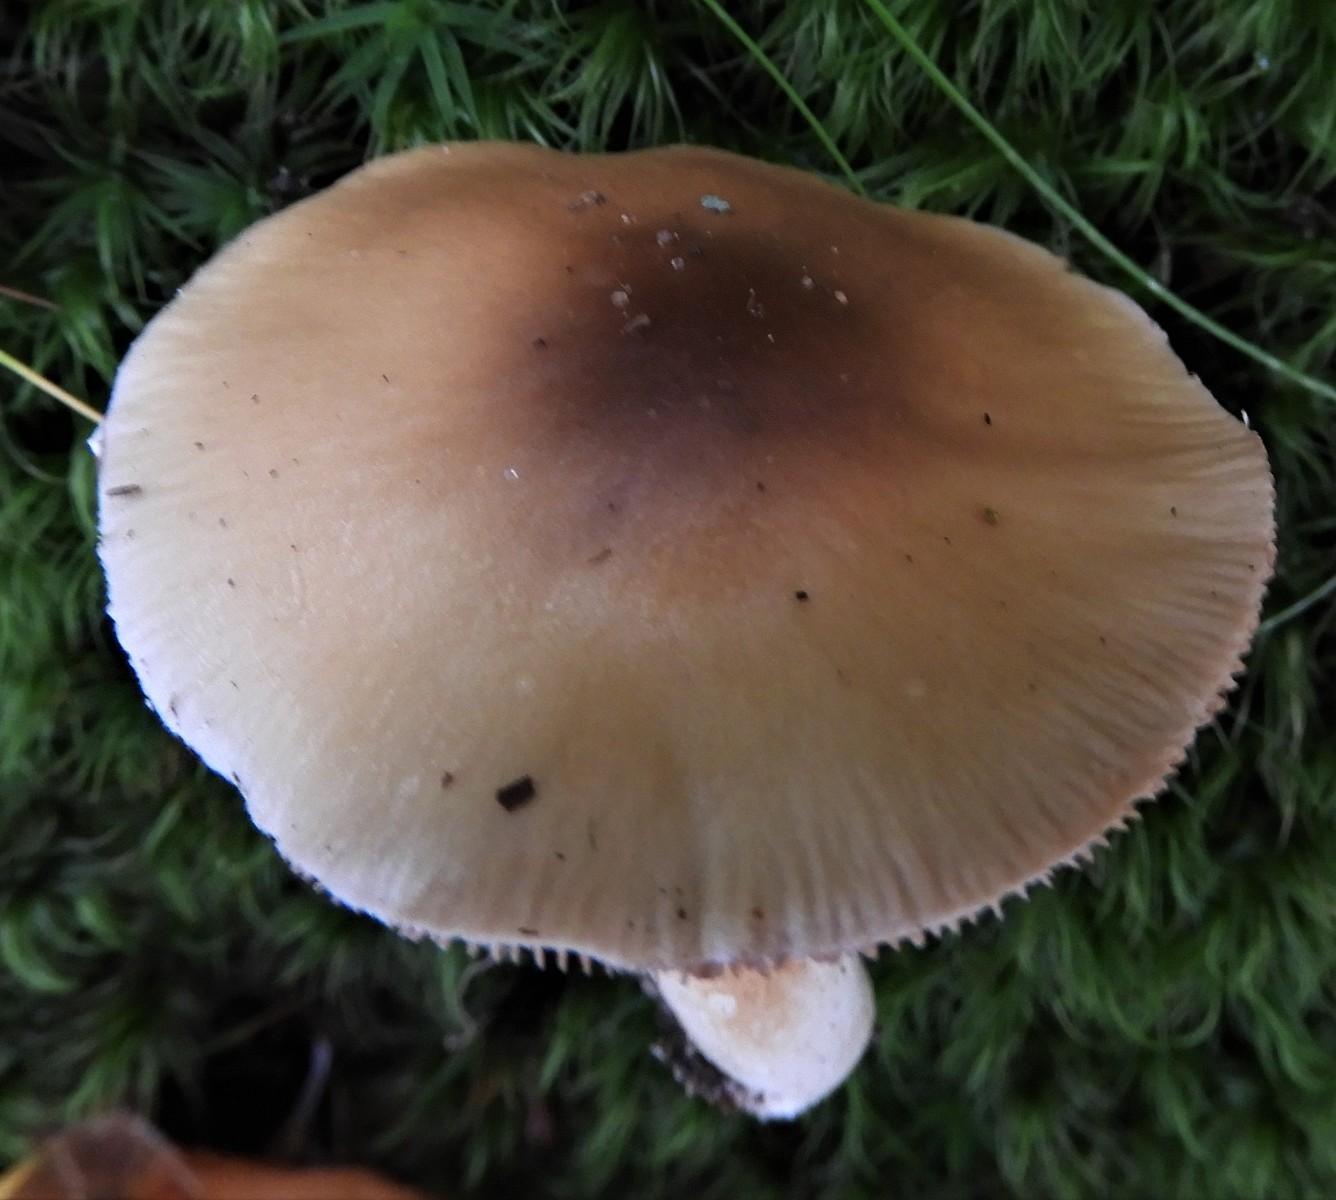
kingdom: Fungi
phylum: Basidiomycota
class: Agaricomycetes
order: Agaricales
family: Cortinariaceae
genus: Cortinarius
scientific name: Cortinarius elatior
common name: høj slørhat
